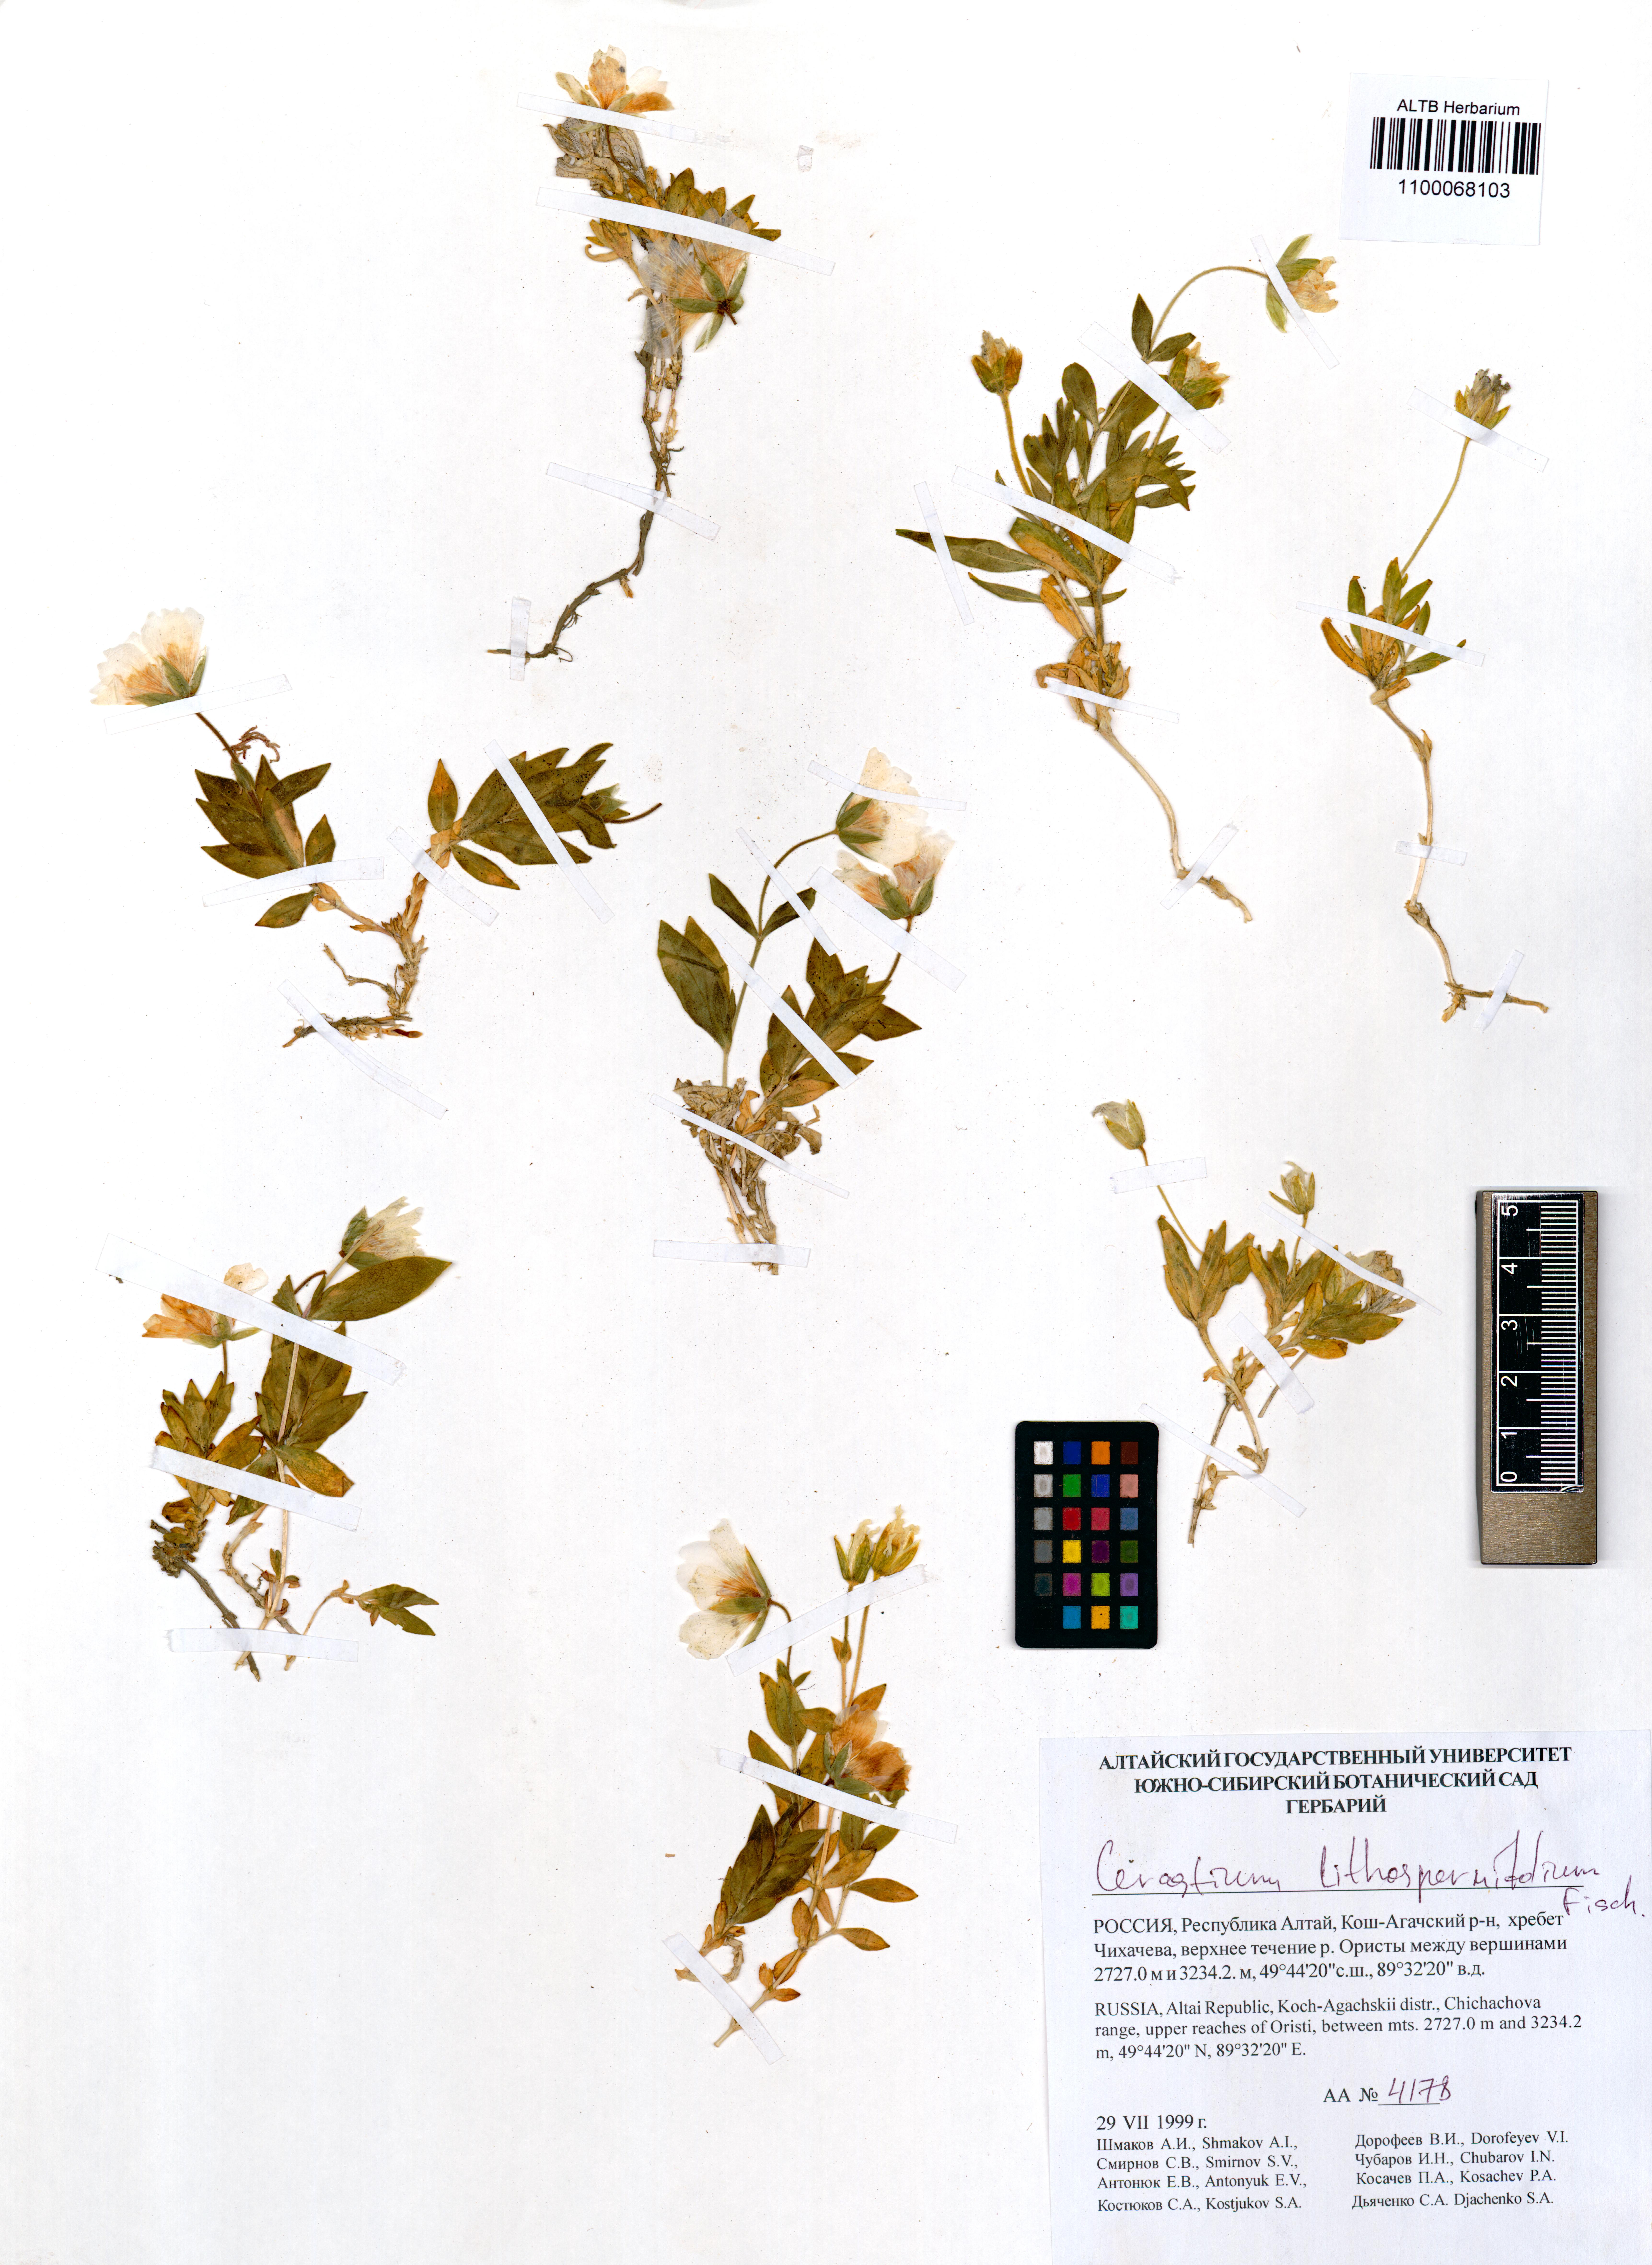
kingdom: Plantae
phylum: Tracheophyta
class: Magnoliopsida
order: Caryophyllales
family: Caryophyllaceae
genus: Cerastium
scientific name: Cerastium lithospermifolium
